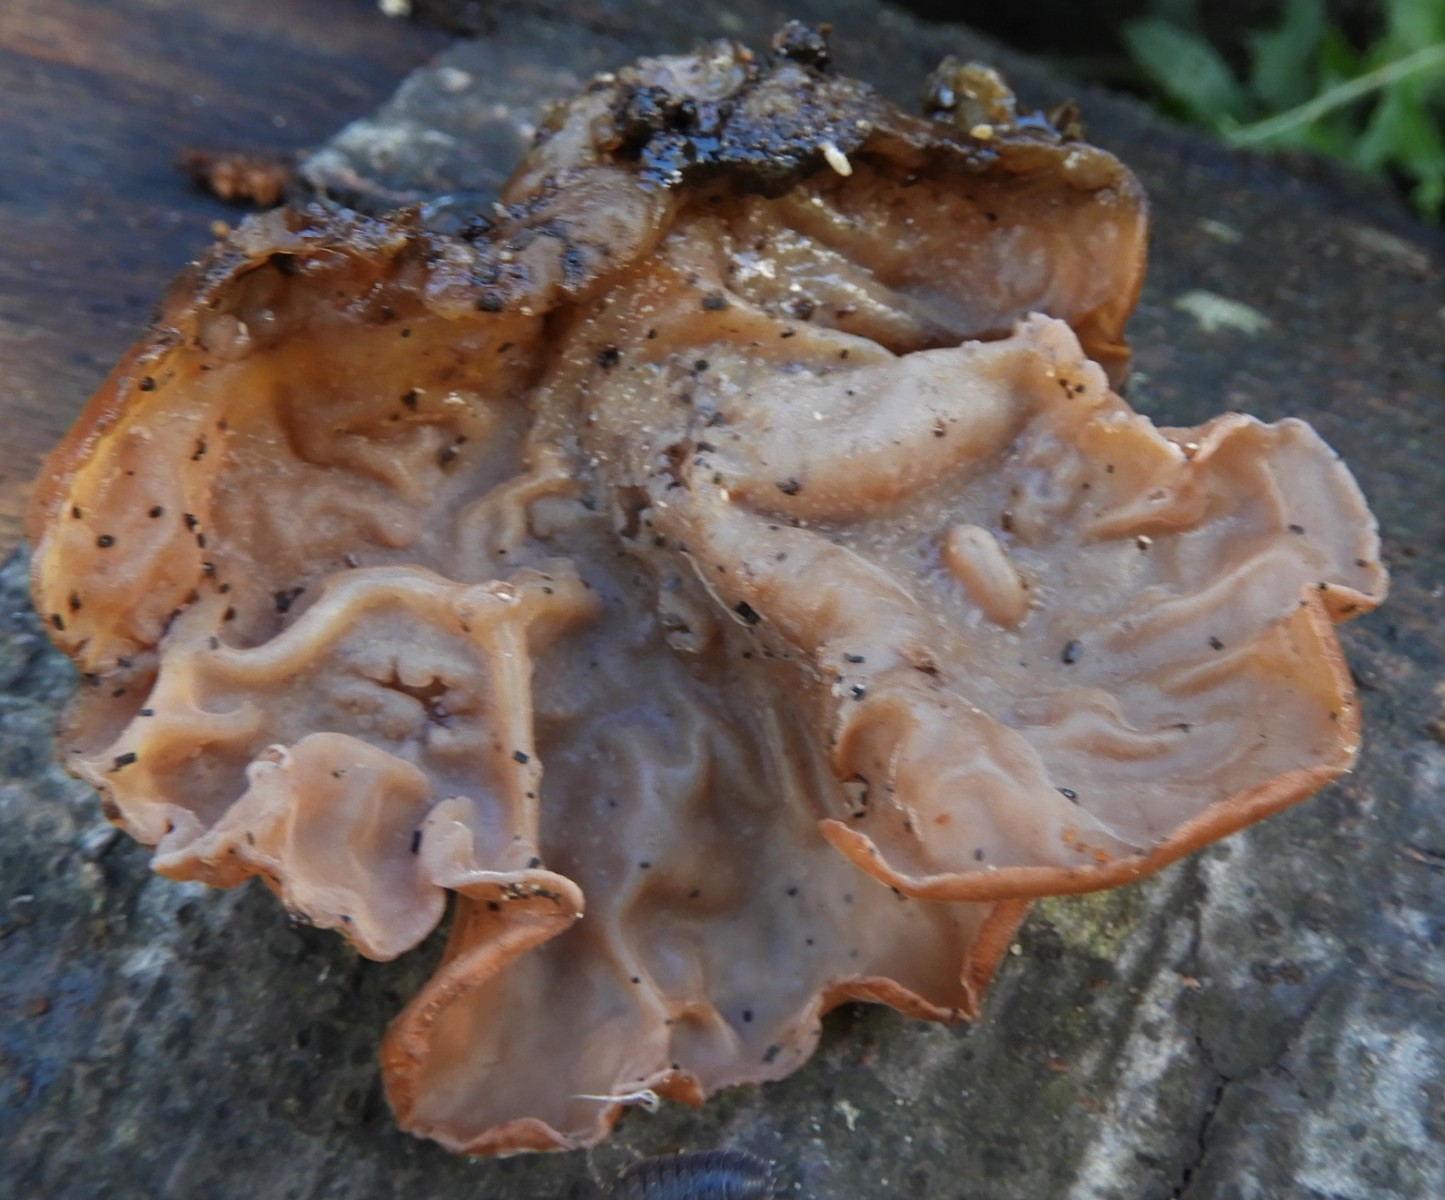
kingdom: Fungi
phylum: Basidiomycota
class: Agaricomycetes
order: Auriculariales
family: Auriculariaceae
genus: Auricularia
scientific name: Auricularia auricula-judae
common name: almindelig judasøre
